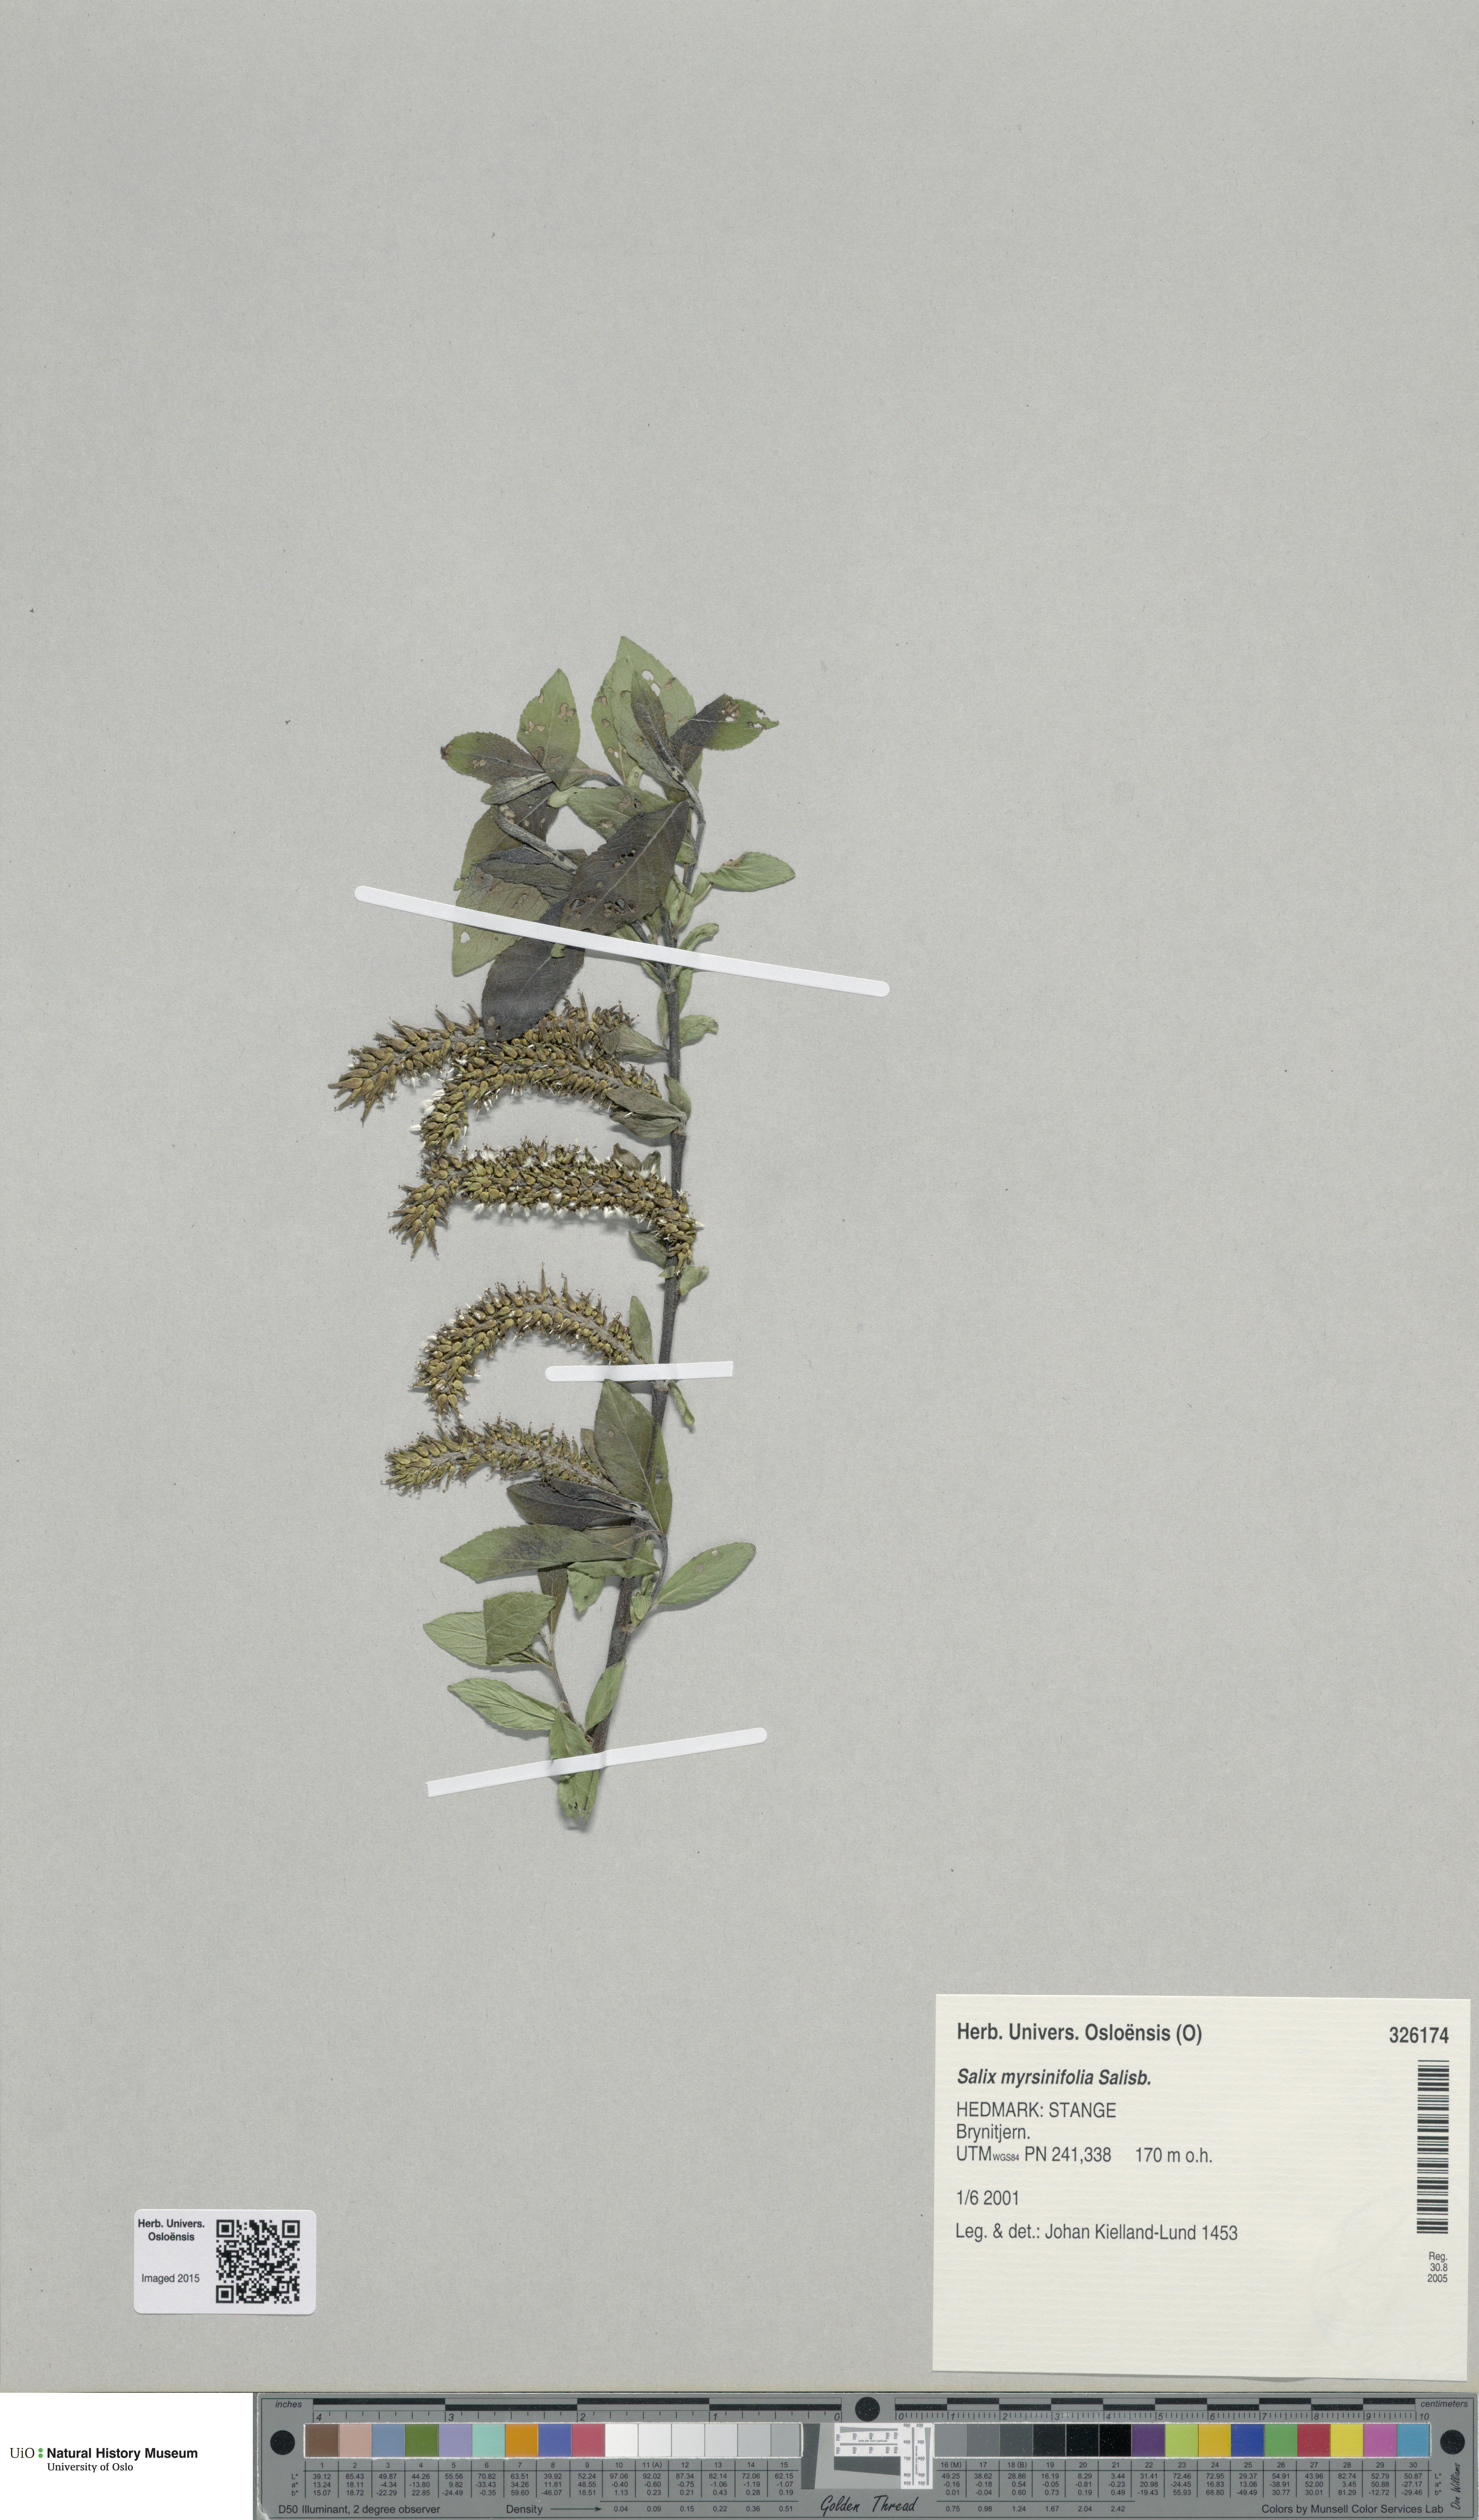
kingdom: Plantae
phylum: Tracheophyta
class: Magnoliopsida
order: Malpighiales
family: Salicaceae
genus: Salix
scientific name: Salix myrsinifolia
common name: Dark-leaved willow
